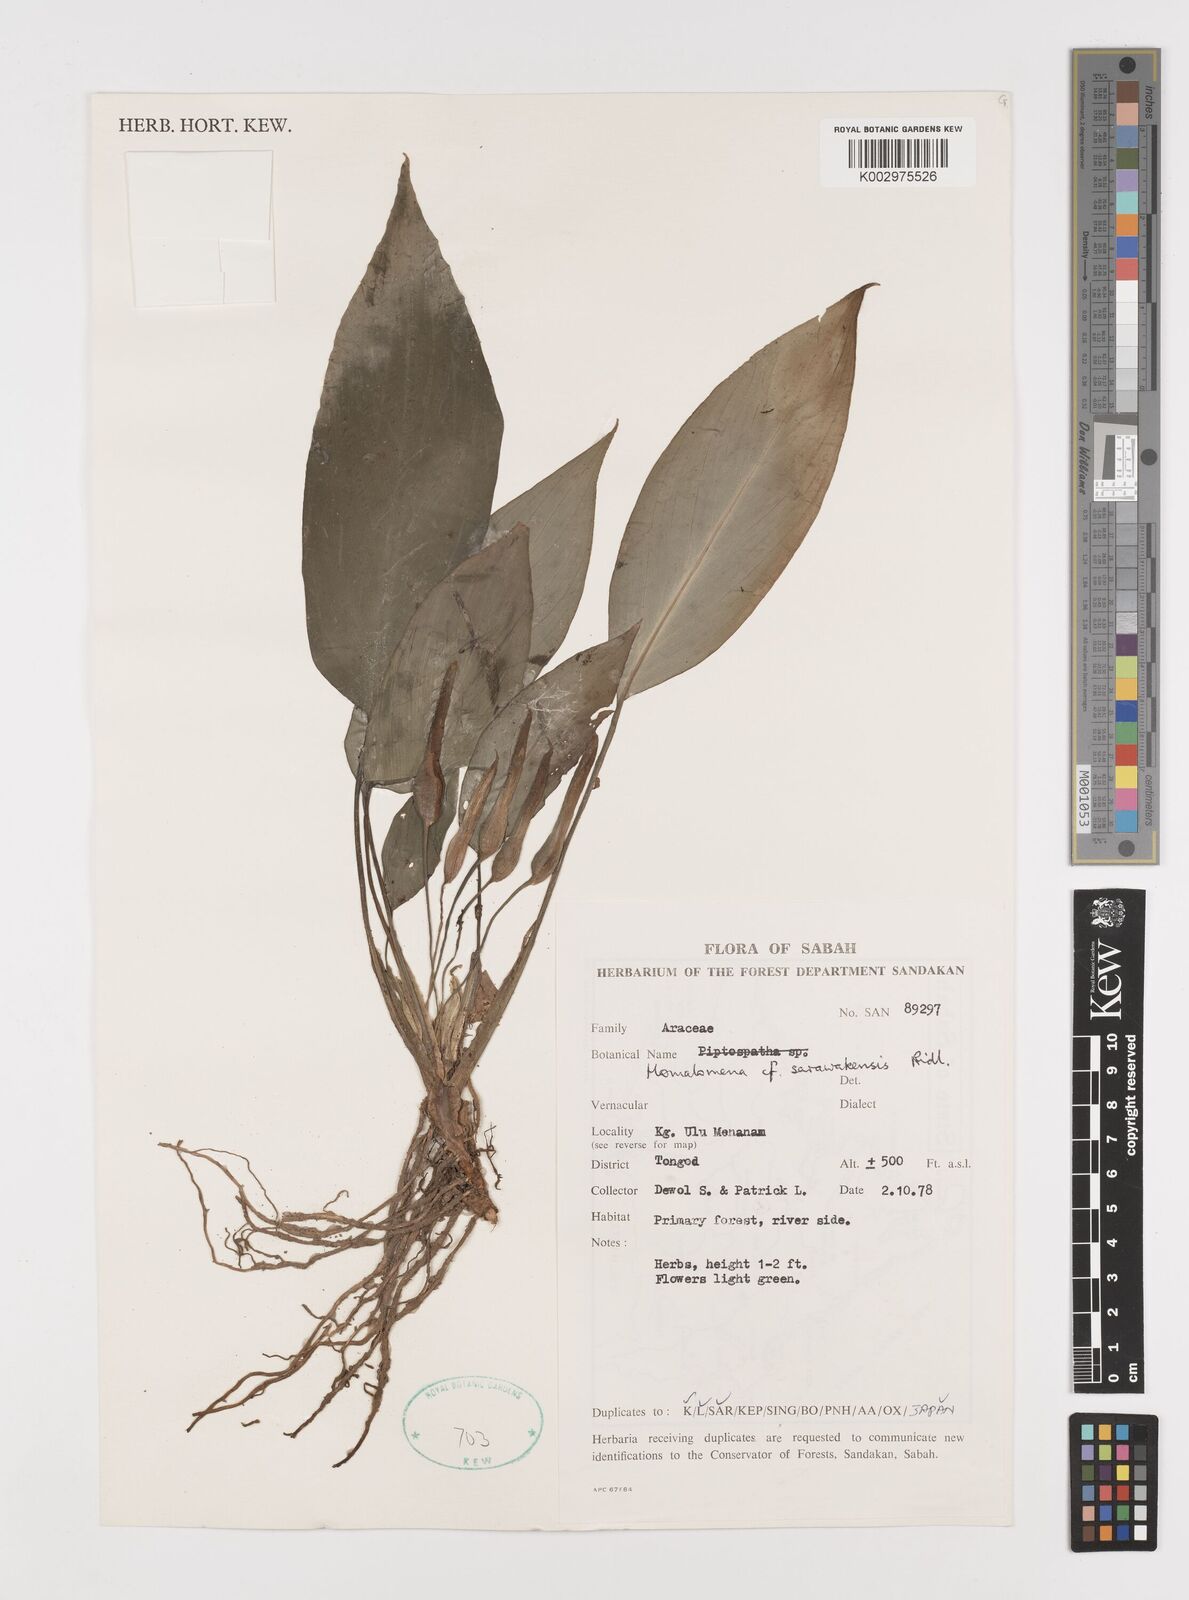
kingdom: Plantae
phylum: Tracheophyta
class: Liliopsida
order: Alismatales
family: Araceae
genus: Homalomena
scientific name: Homalomena sarawakensis
